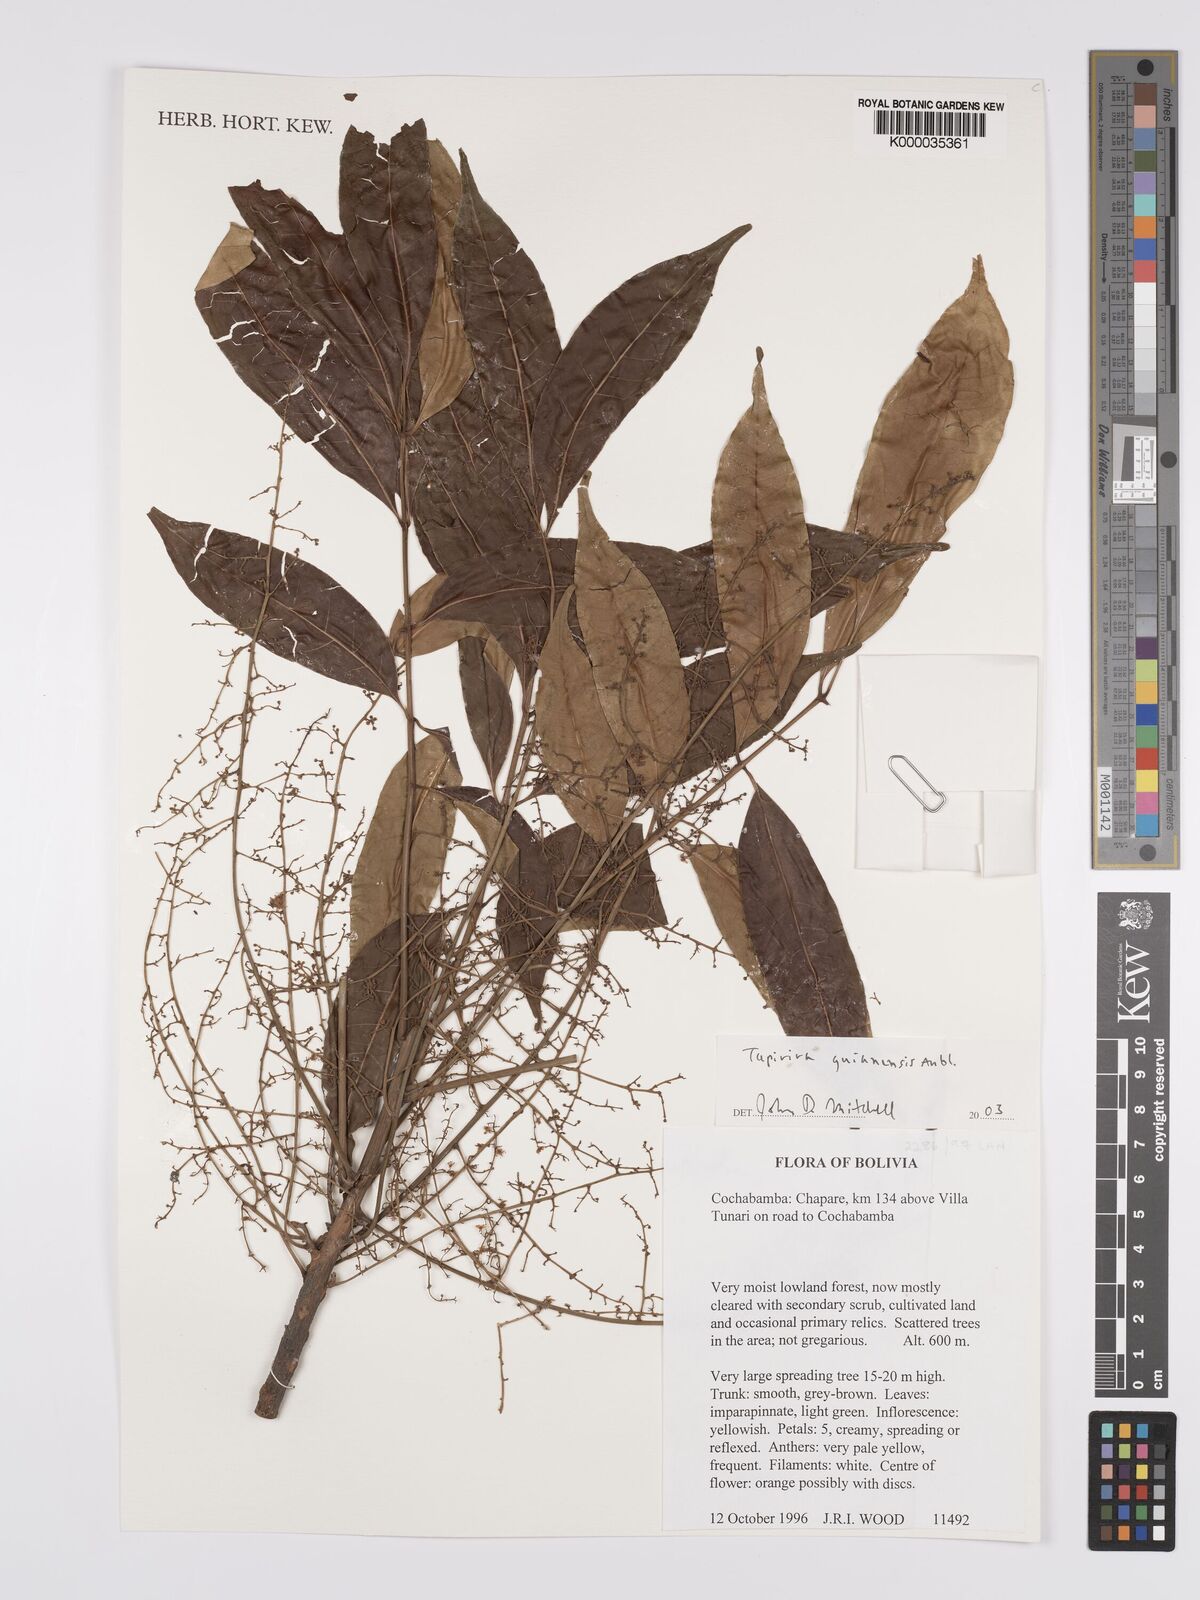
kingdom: Plantae
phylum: Tracheophyta
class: Magnoliopsida
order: Sapindales
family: Anacardiaceae
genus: Tapirira
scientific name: Tapirira guianensis
